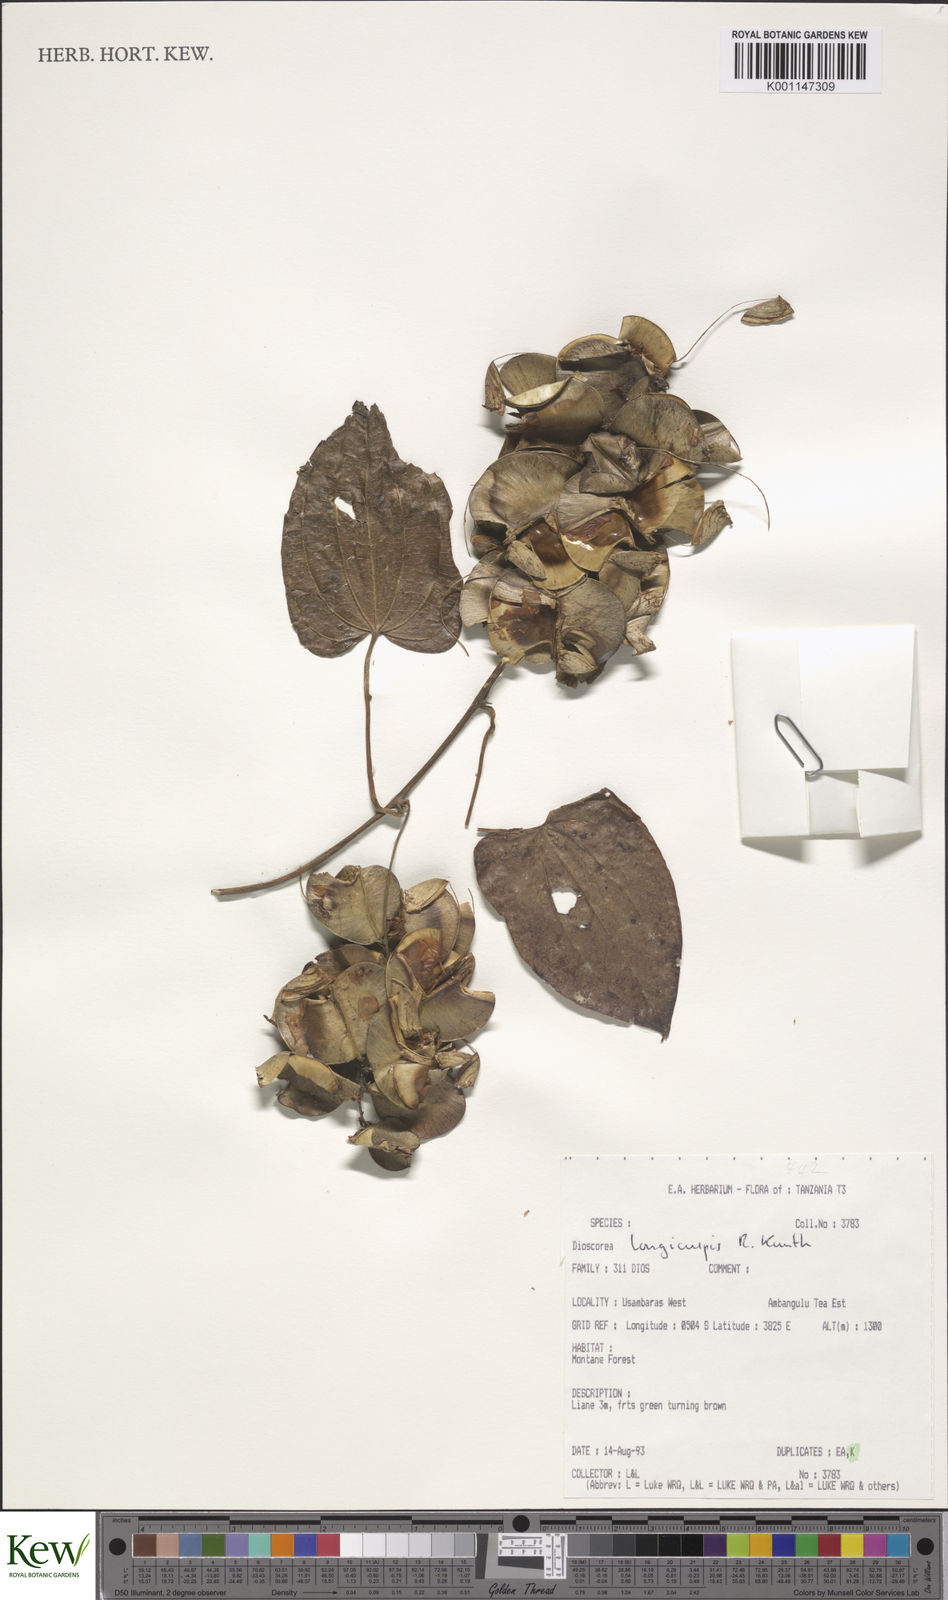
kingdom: Plantae
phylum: Tracheophyta
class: Liliopsida
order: Dioscoreales
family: Dioscoreaceae
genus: Dioscorea
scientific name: Dioscorea longicuspis
